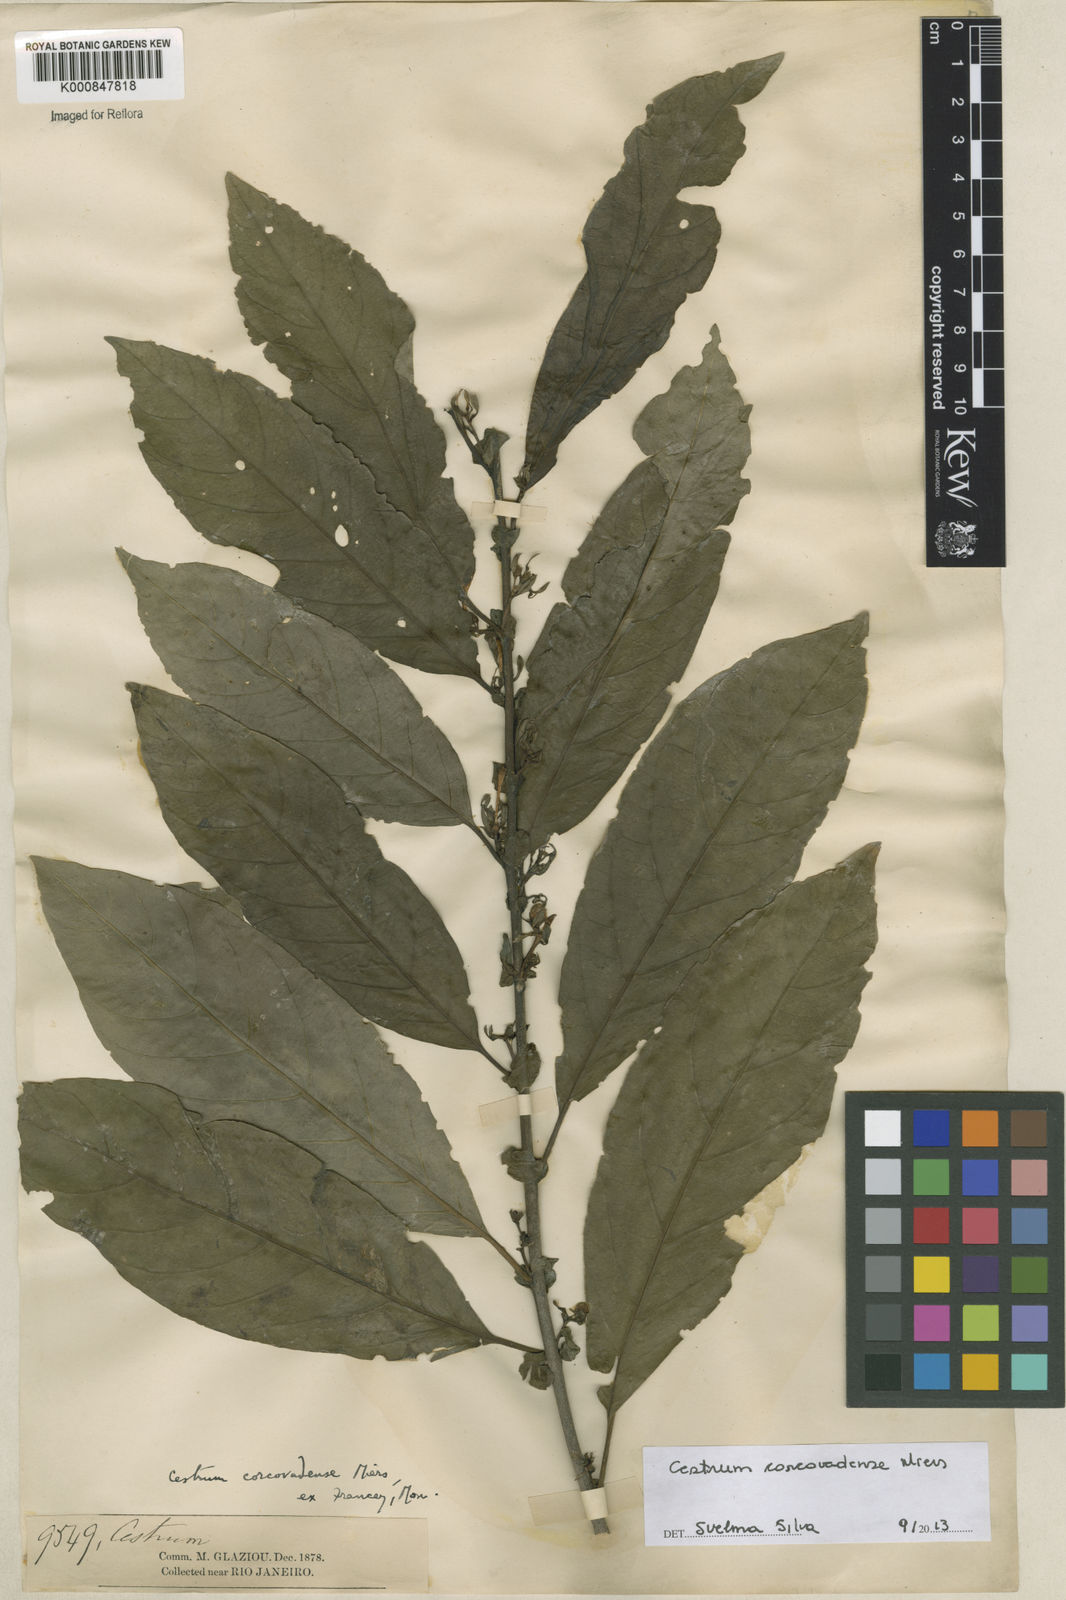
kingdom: Plantae
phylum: Tracheophyta
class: Magnoliopsida
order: Solanales
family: Solanaceae
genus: Cestrum
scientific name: Cestrum corcovadense
